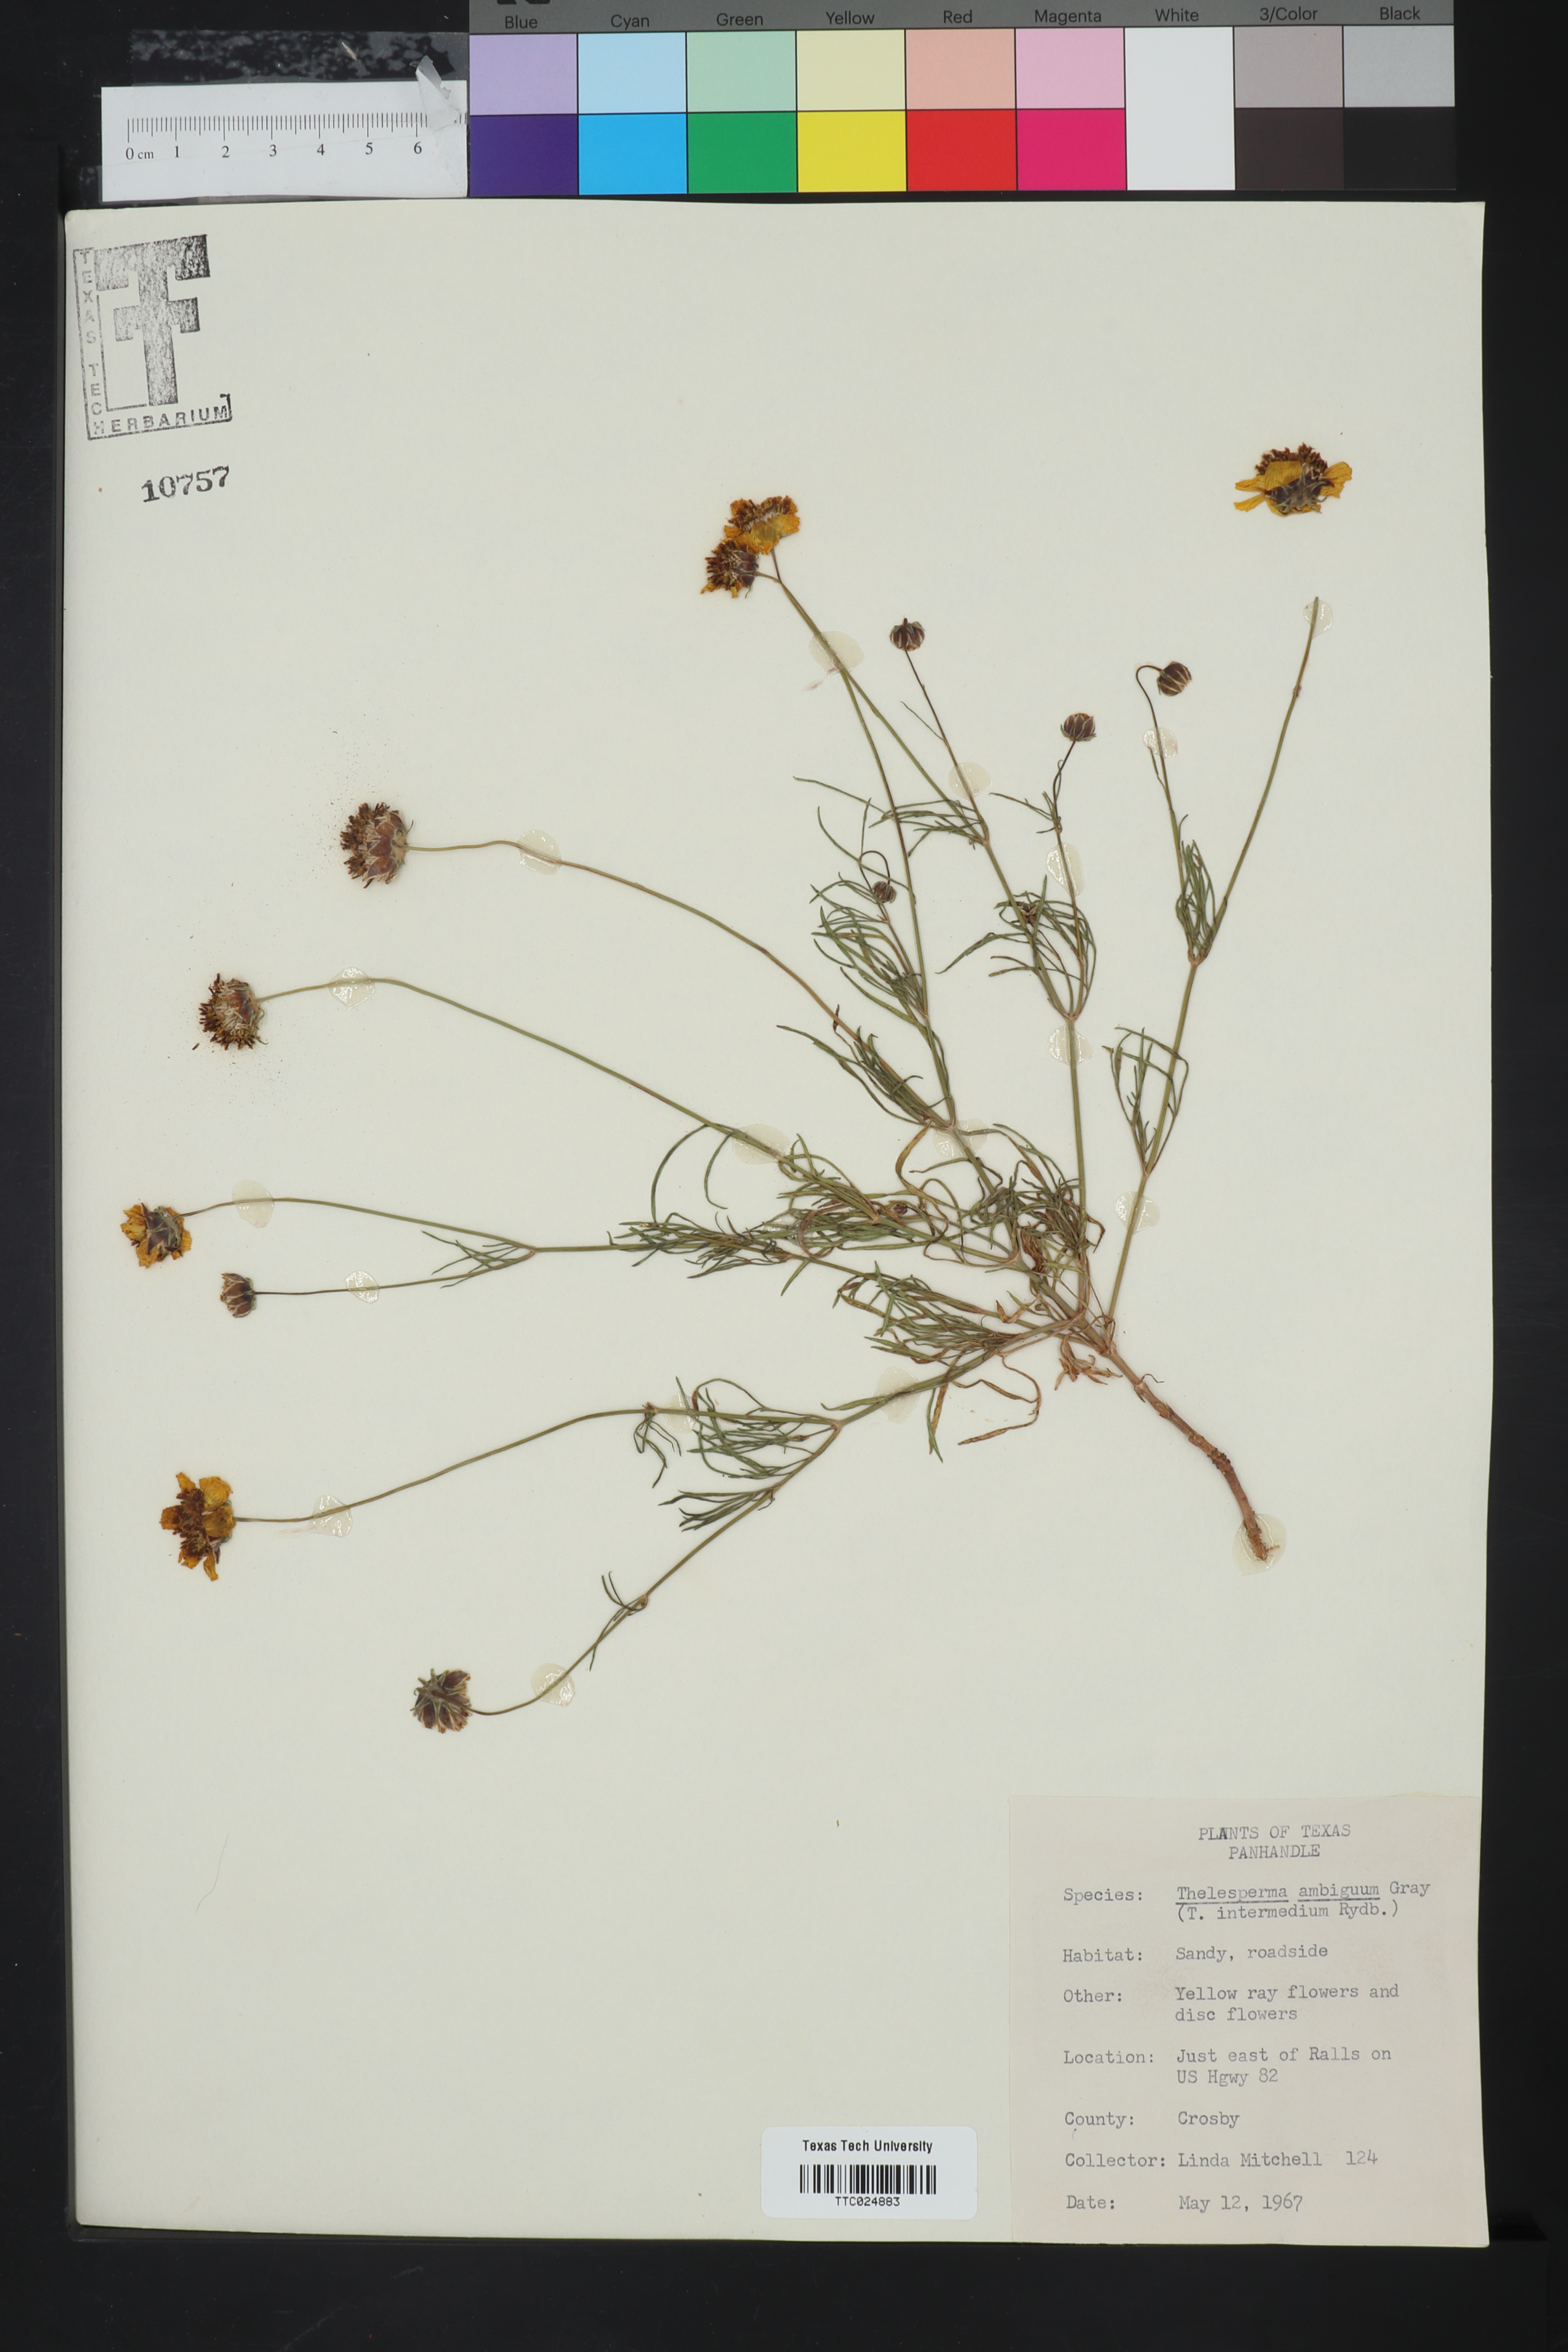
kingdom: Plantae
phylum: Tracheophyta
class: Magnoliopsida
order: Asterales
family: Asteraceae
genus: Thelesperma
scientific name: Thelesperma ambiguum
